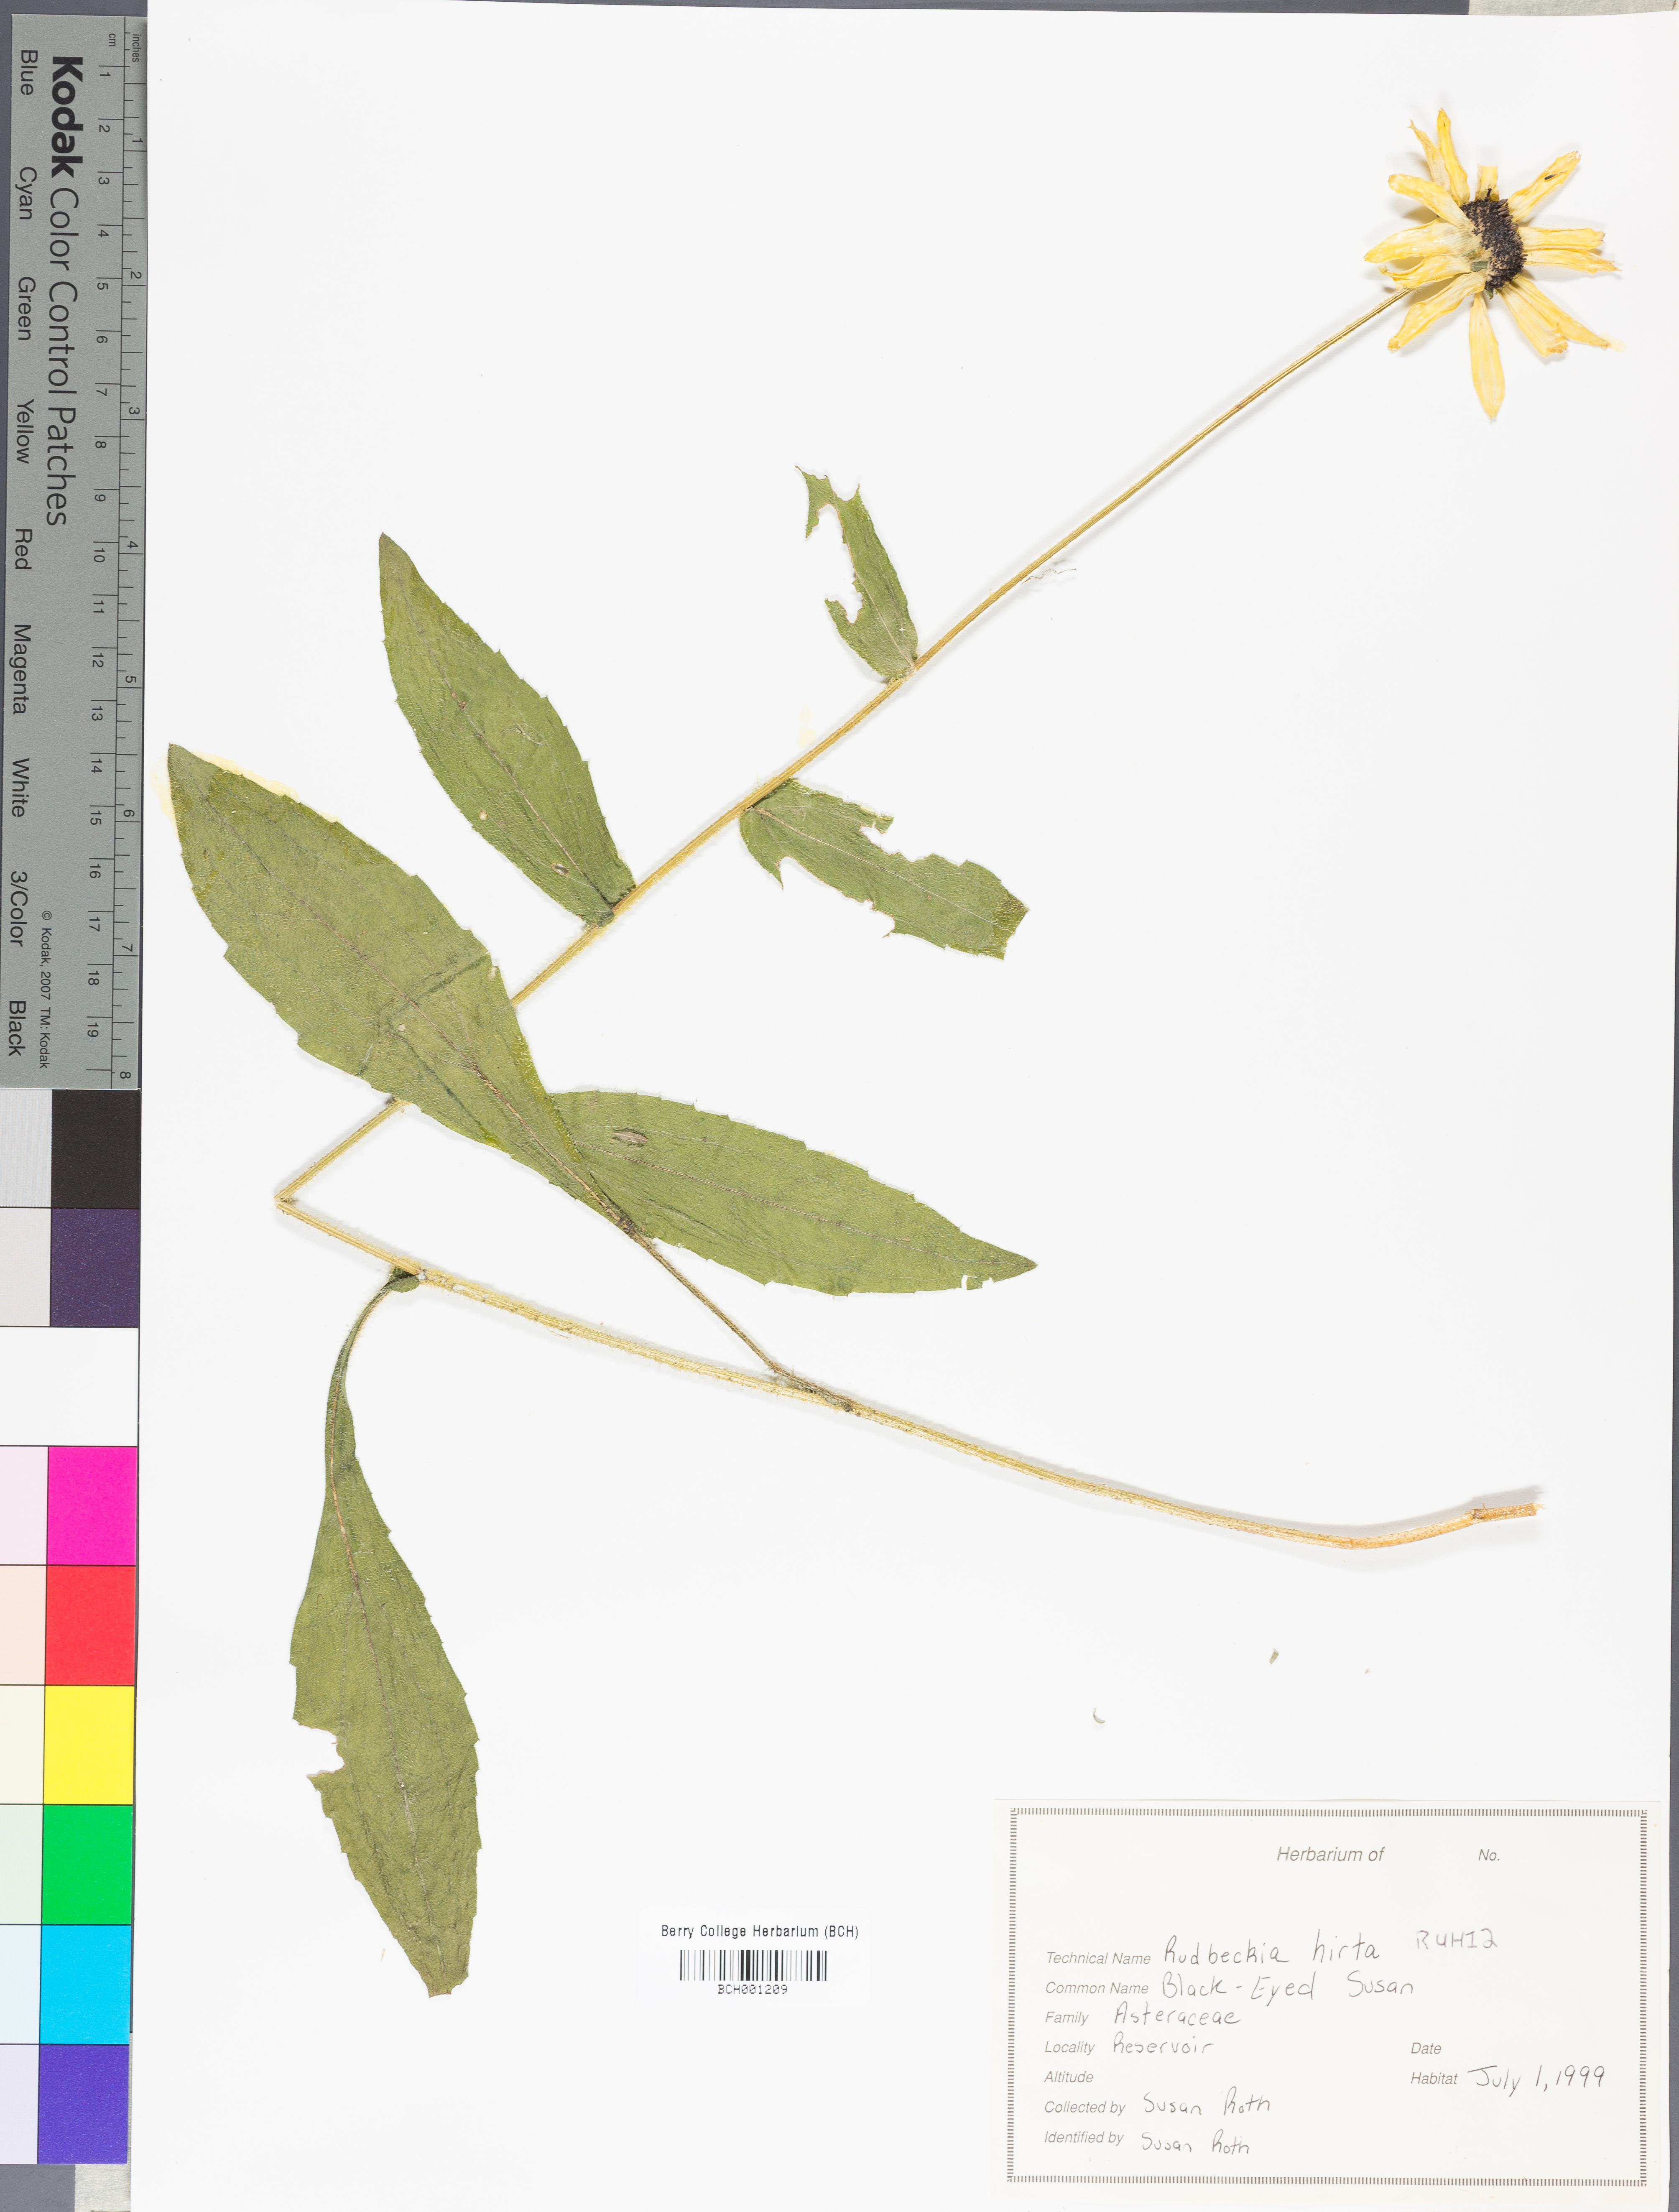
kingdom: Plantae
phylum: Tracheophyta
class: Magnoliopsida
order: Asterales
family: Asteraceae
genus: Rudbeckia
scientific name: Rudbeckia hirta
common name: Black-eyed-susan
